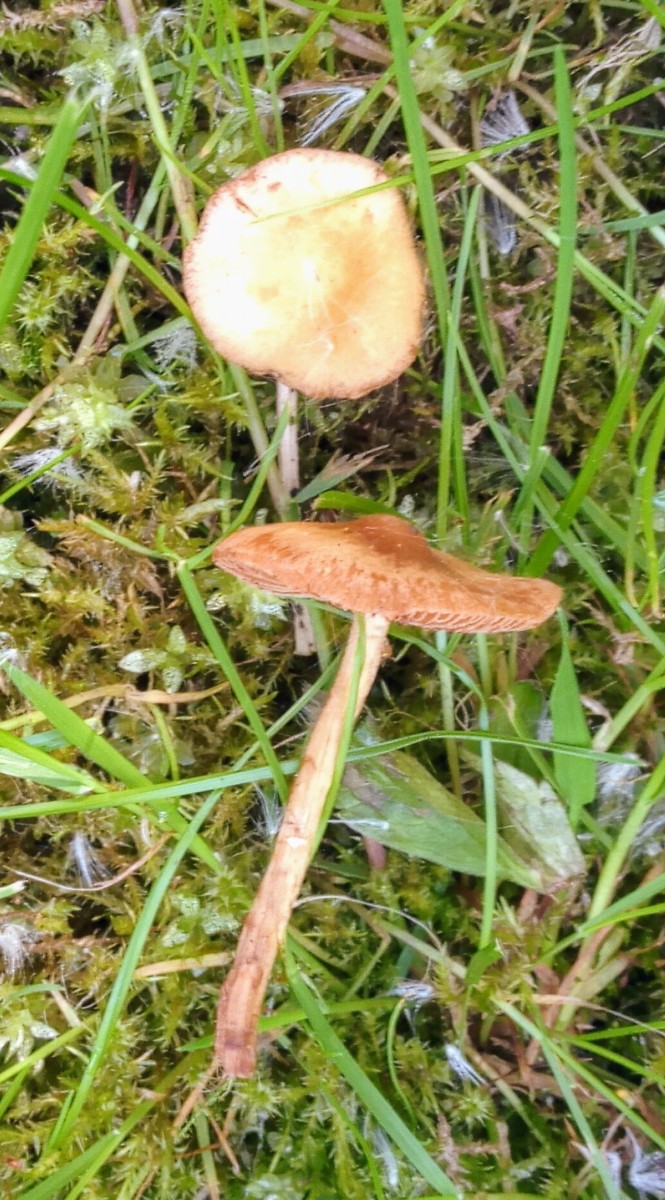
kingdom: Fungi
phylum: Basidiomycota
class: Agaricomycetes
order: Agaricales
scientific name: Agaricales
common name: champignonordenen
